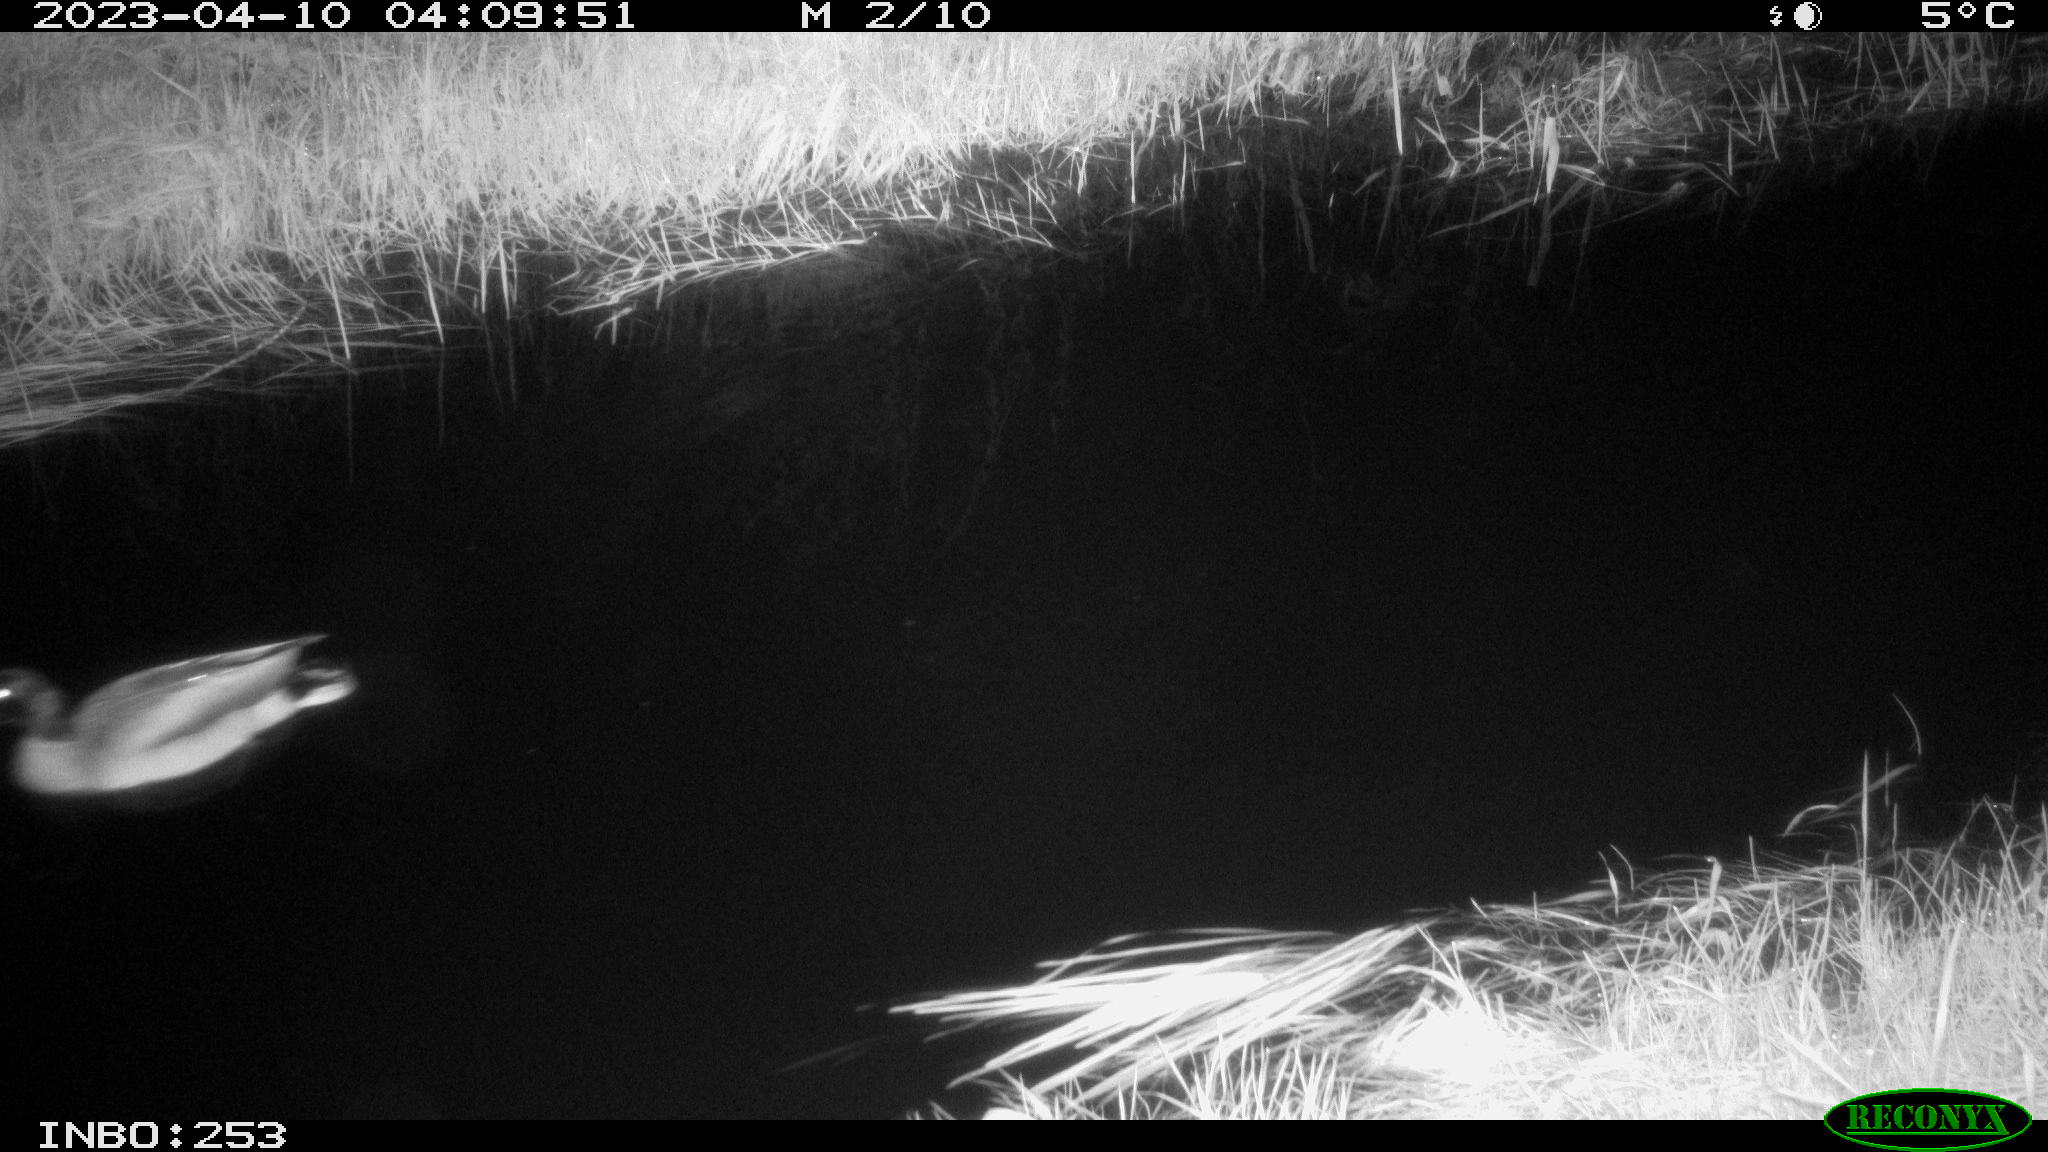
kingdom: Animalia
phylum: Chordata
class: Aves
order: Anseriformes
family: Anatidae
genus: Anas
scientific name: Anas
